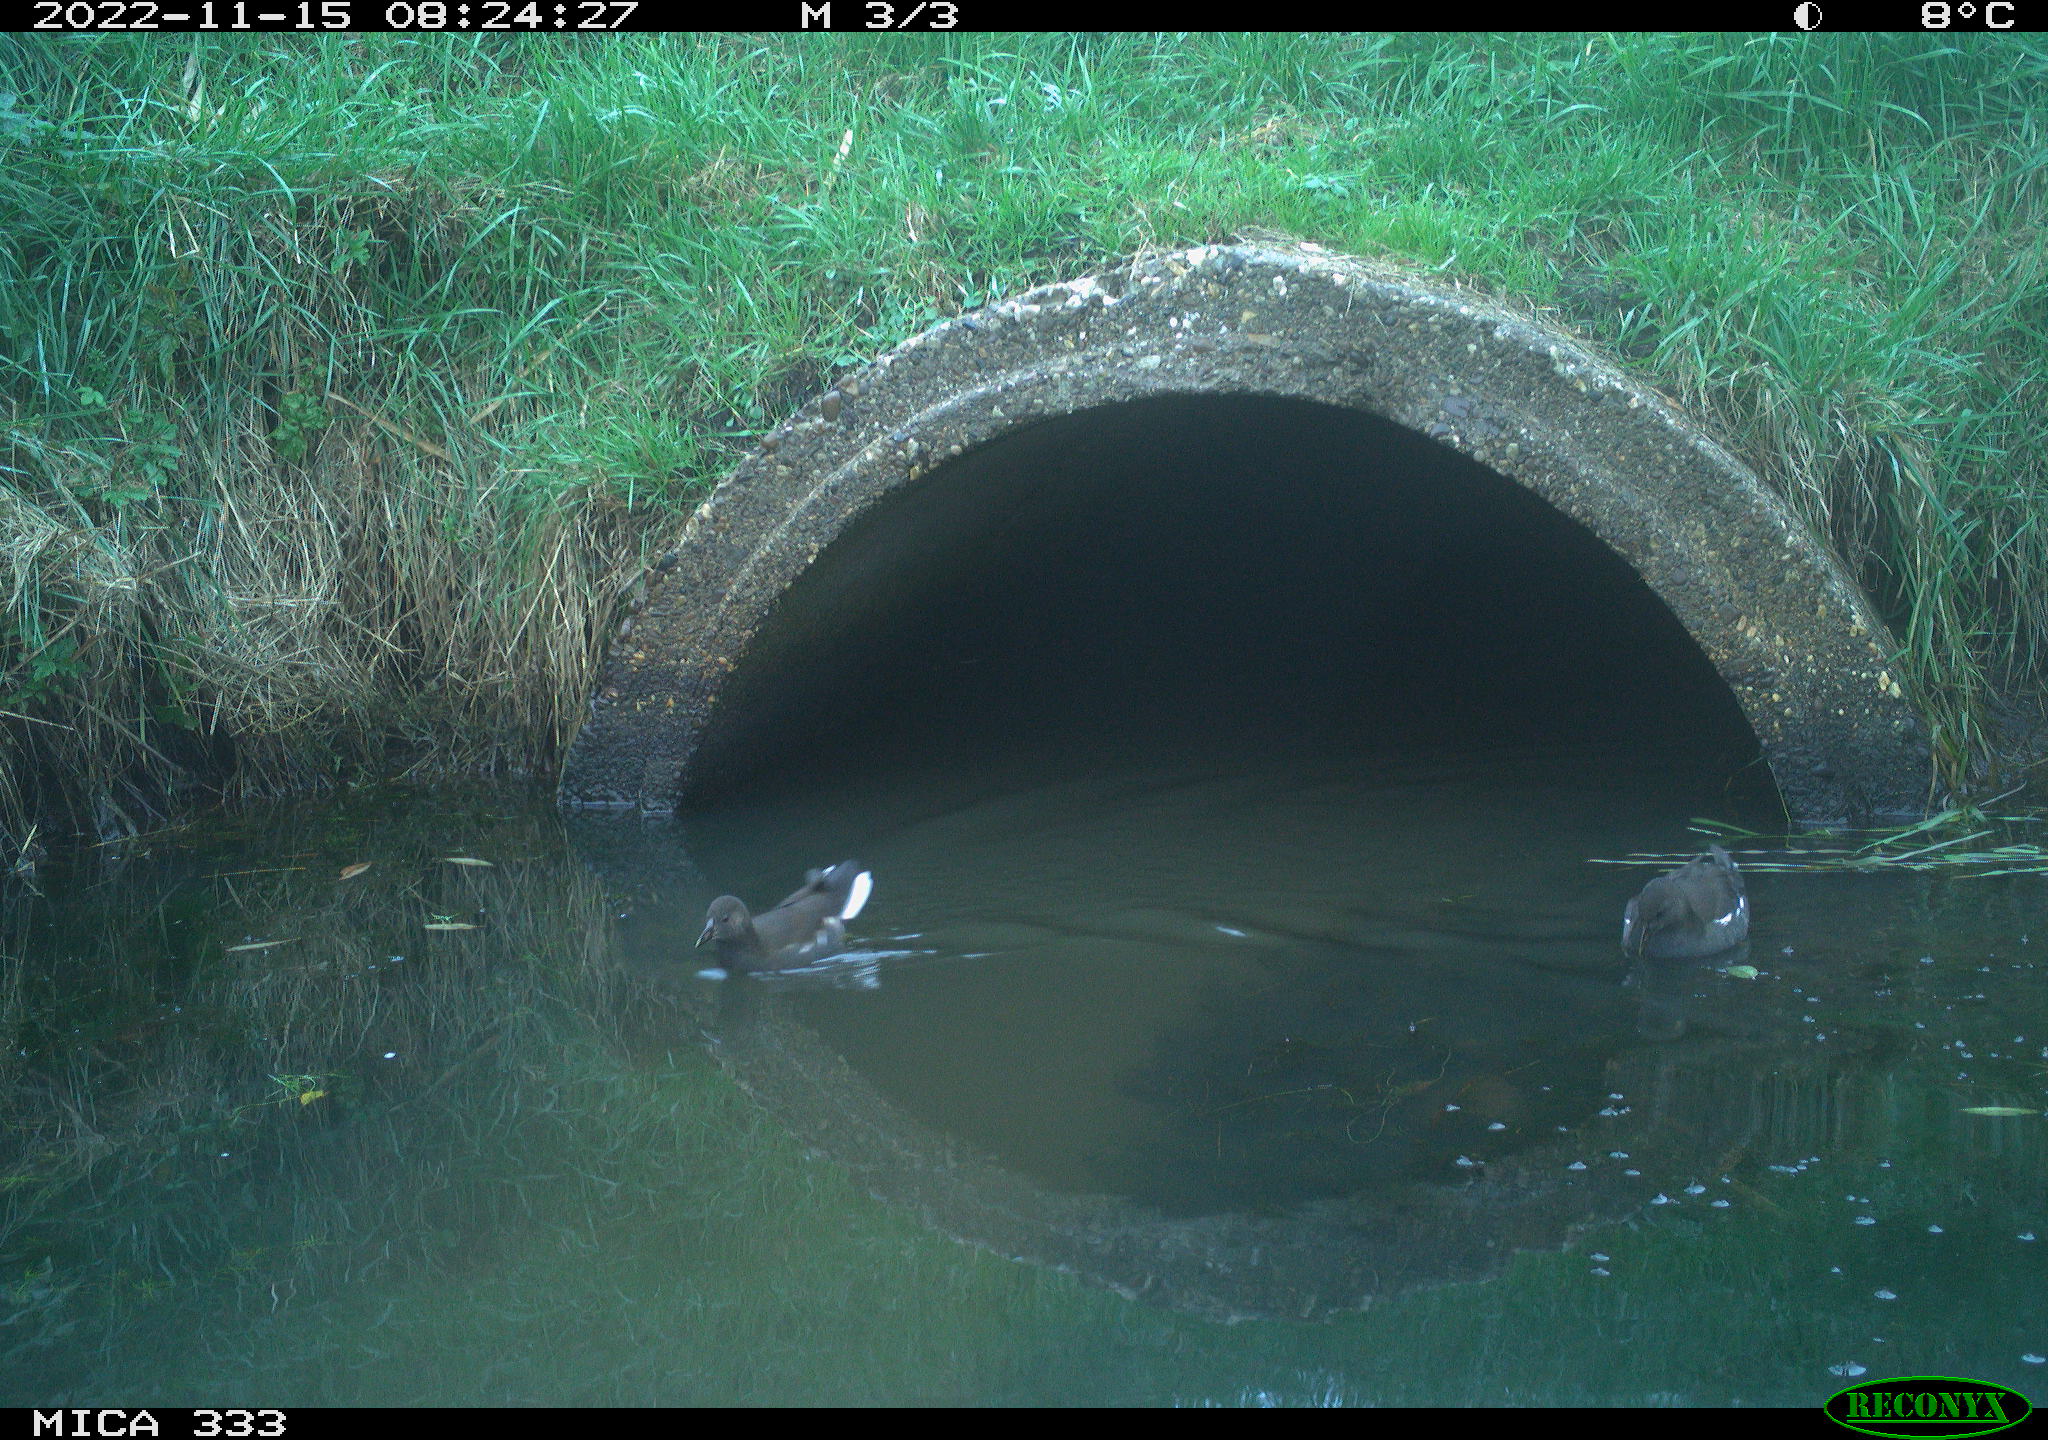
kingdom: Animalia
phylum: Chordata
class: Aves
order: Gruiformes
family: Rallidae
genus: Gallinula
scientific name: Gallinula chloropus
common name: Common moorhen
